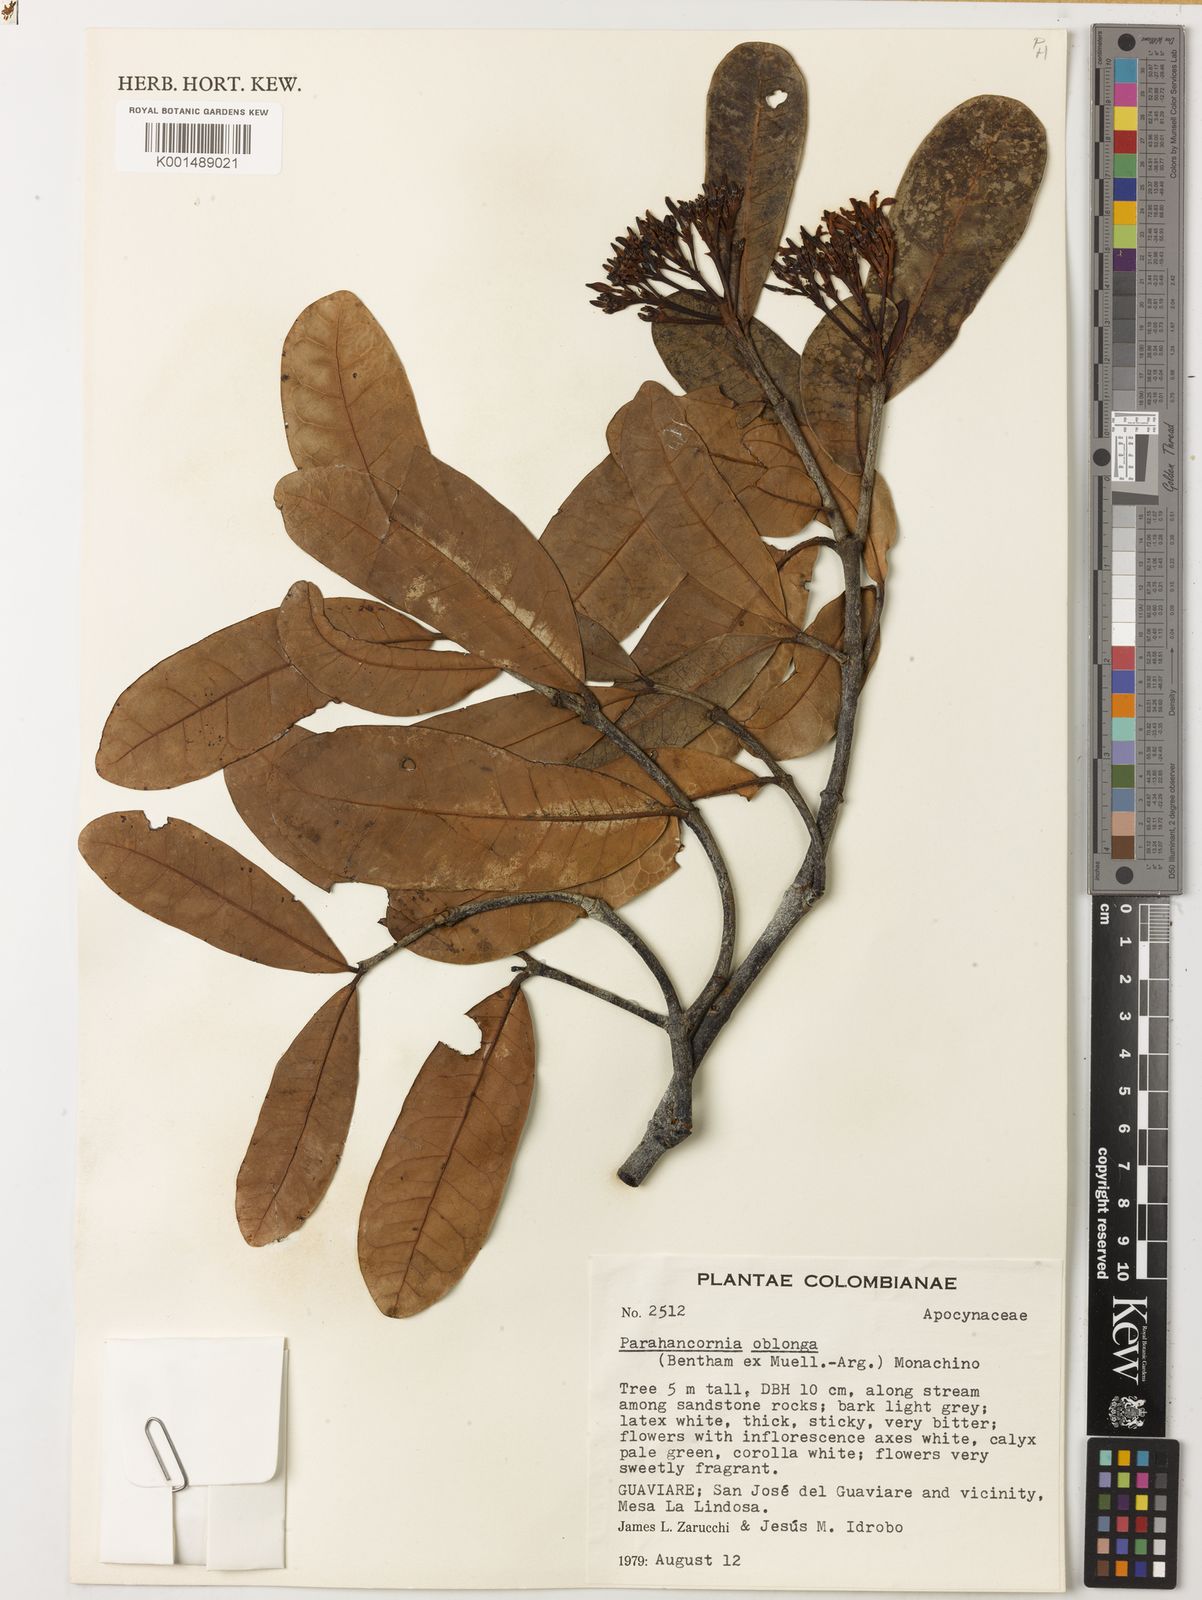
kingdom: Plantae
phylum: Tracheophyta
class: Magnoliopsida
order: Gentianales
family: Apocynaceae
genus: Parahancornia
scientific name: Parahancornia oblonga
